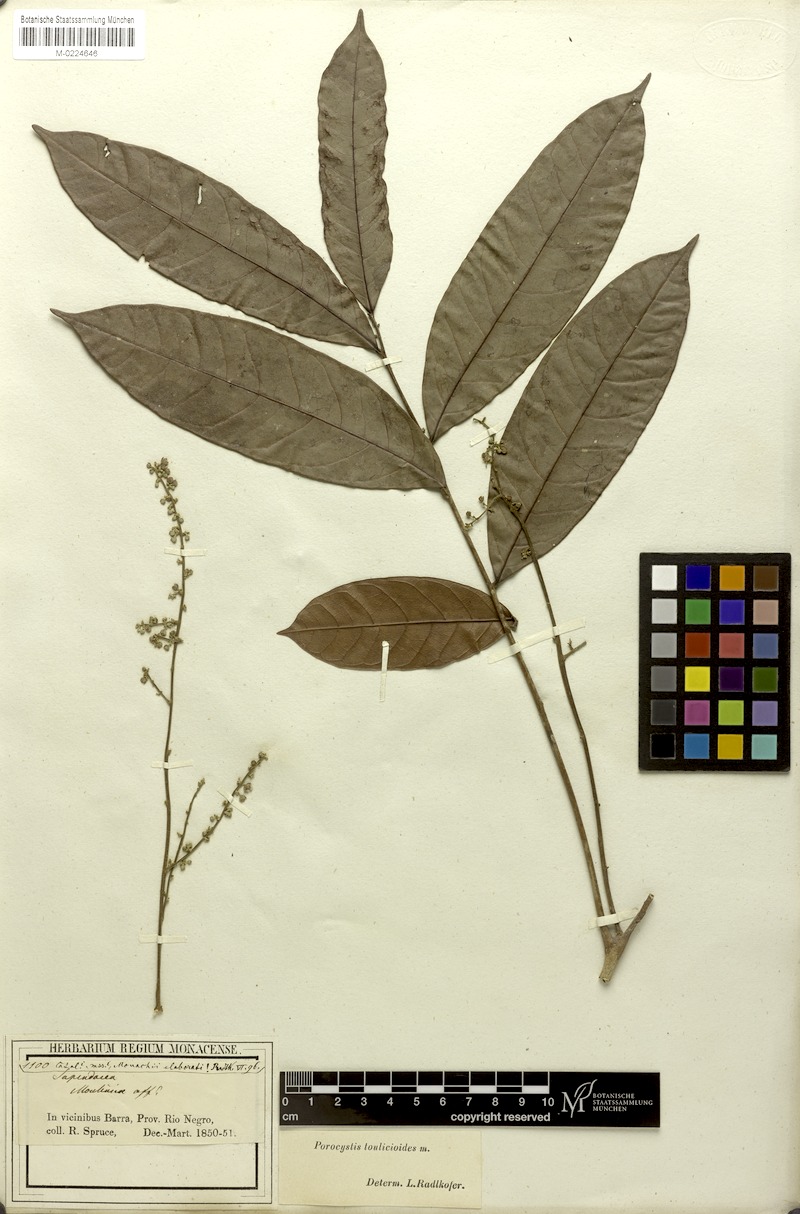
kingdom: Plantae
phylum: Tracheophyta
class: Magnoliopsida
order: Sapindales
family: Sapindaceae
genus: Porocystis
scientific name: Porocystis toulicioides
